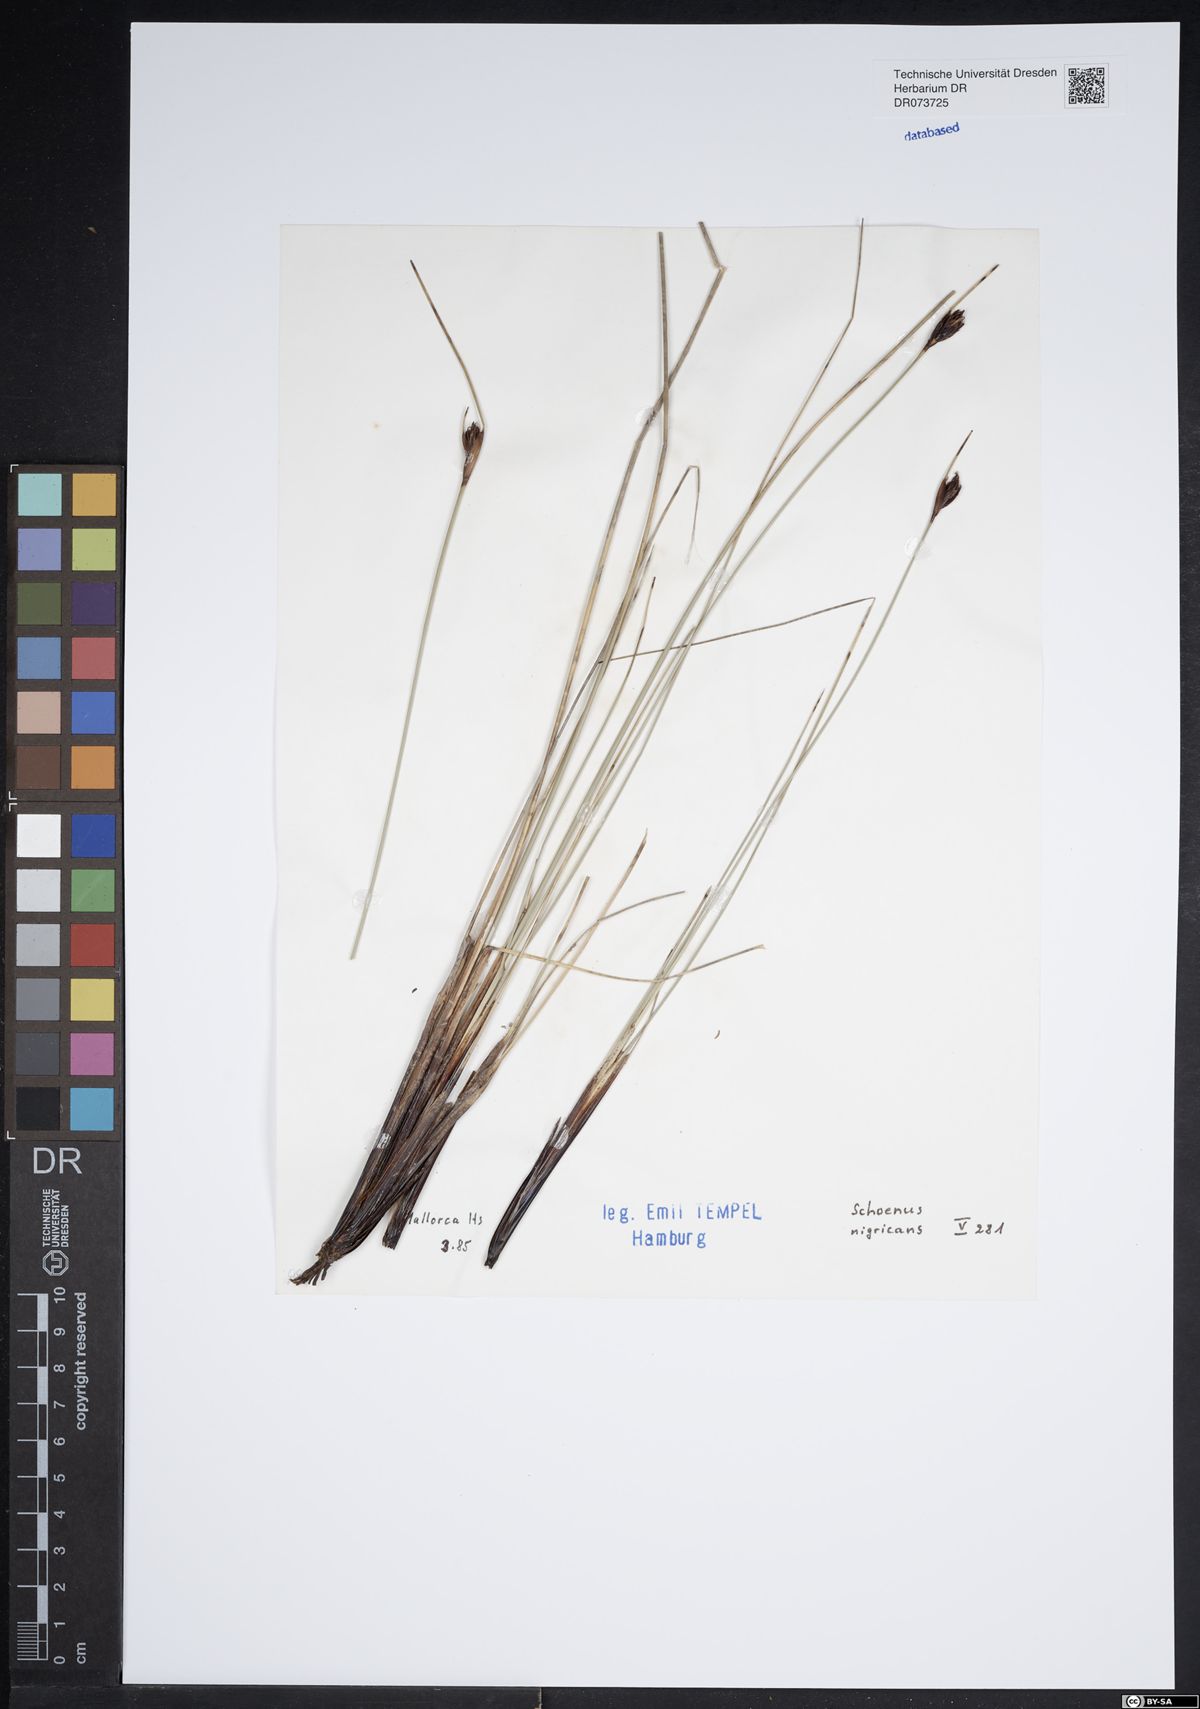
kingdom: Plantae
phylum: Tracheophyta
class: Liliopsida
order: Poales
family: Cyperaceae
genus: Schoenus
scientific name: Schoenus nigricans
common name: Black bog-rush
